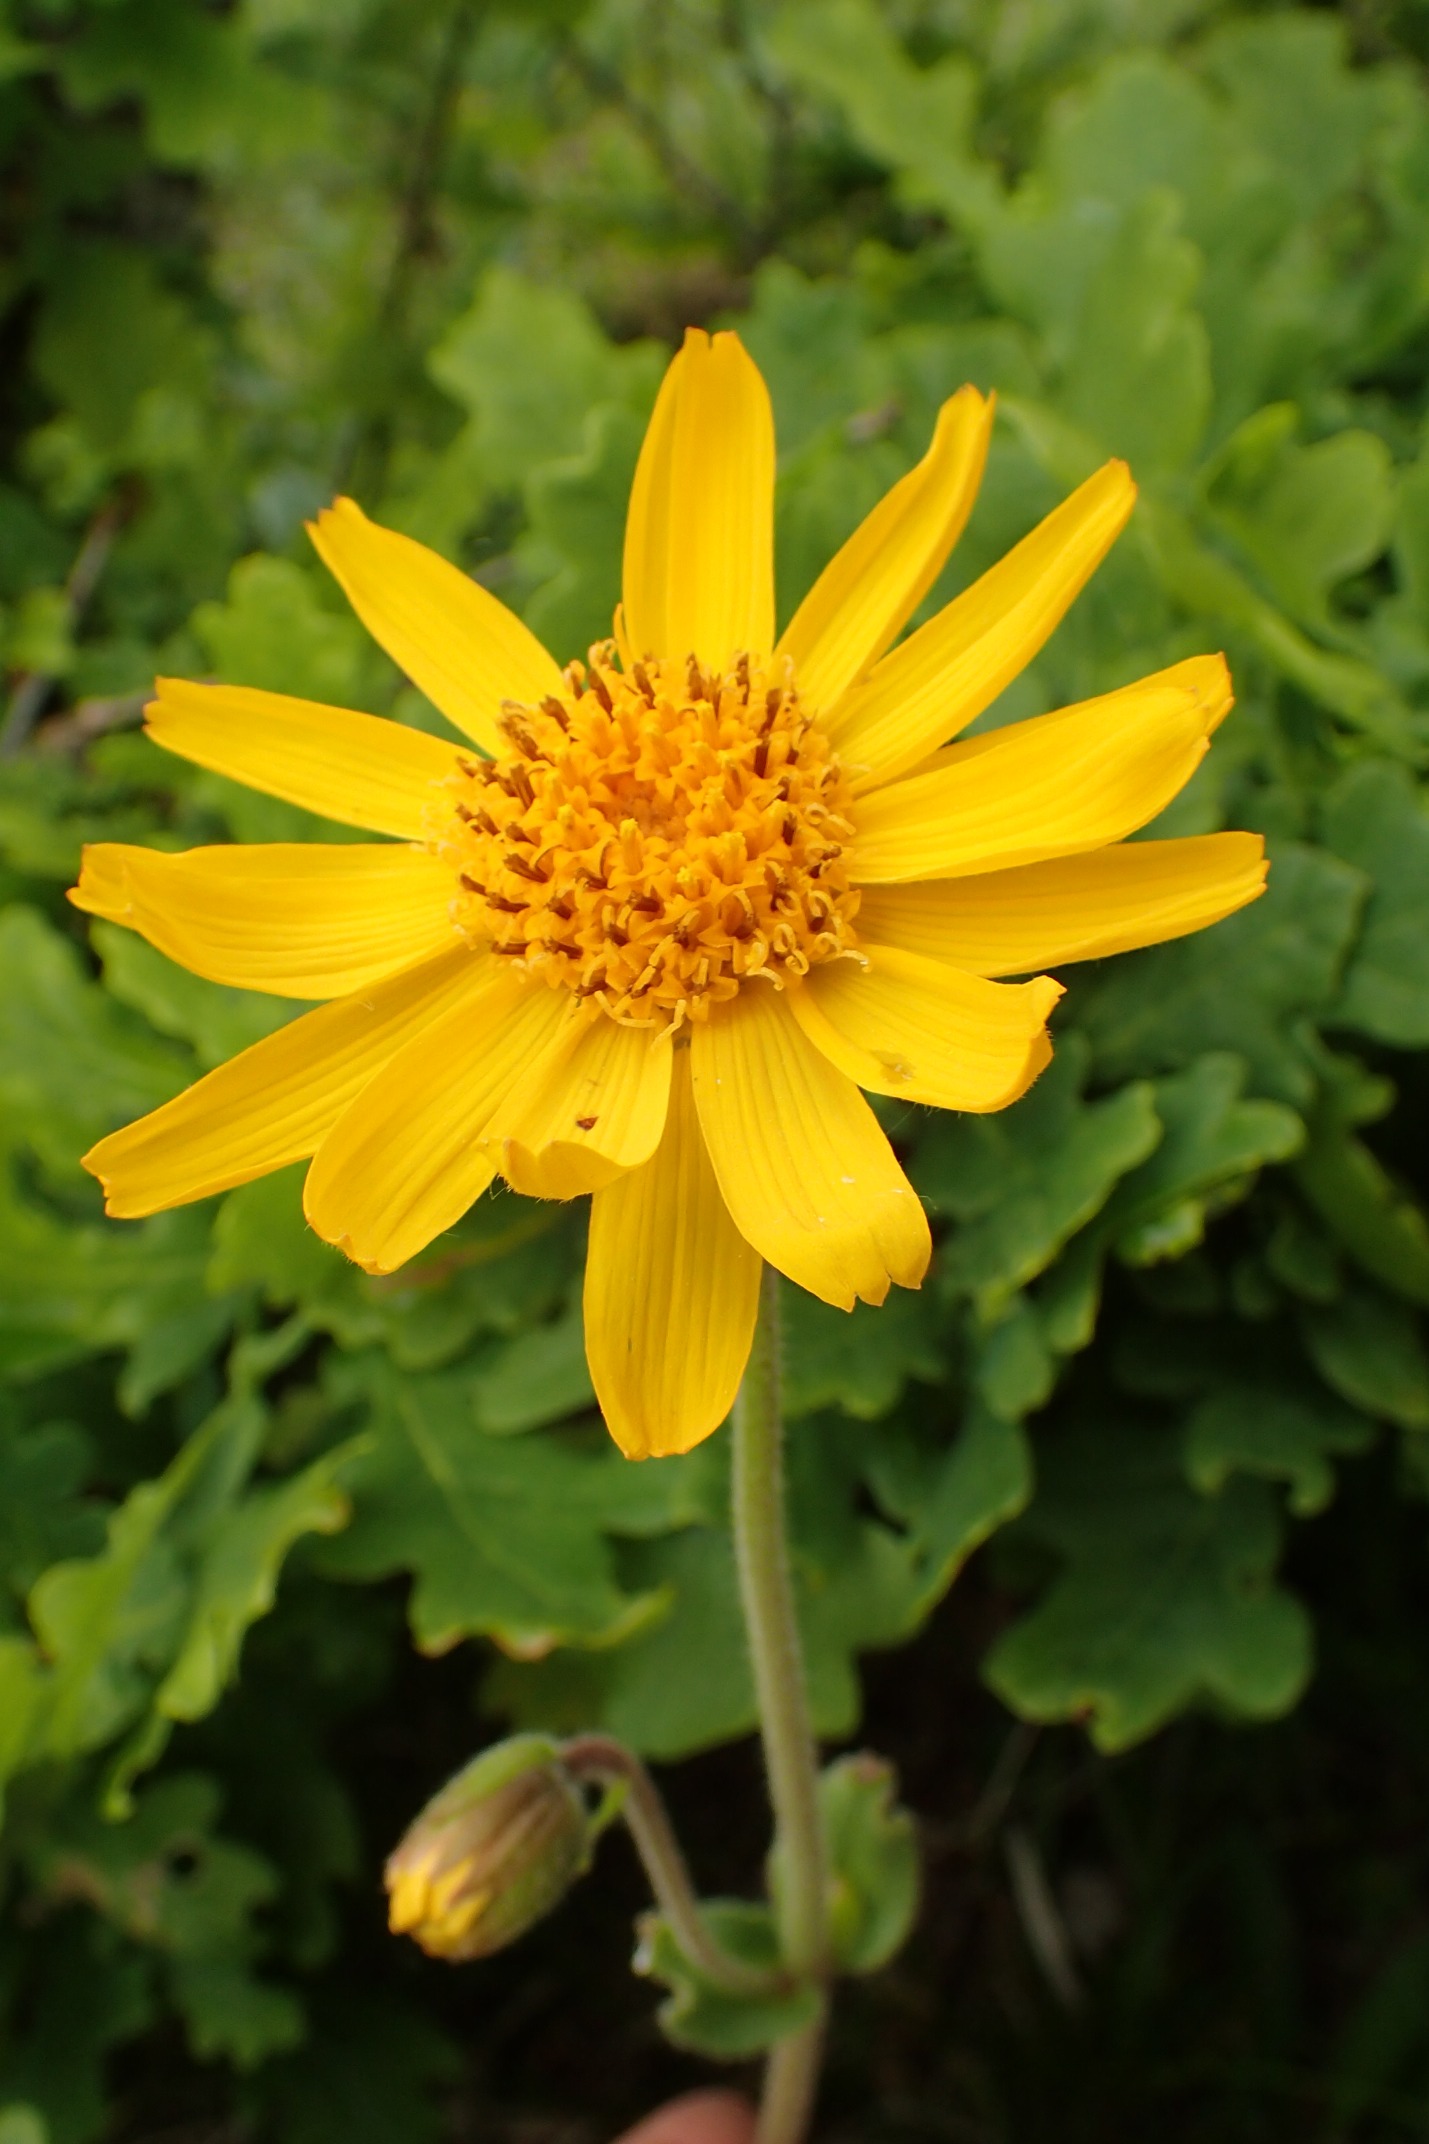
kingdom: Plantae
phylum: Tracheophyta
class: Magnoliopsida
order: Asterales
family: Asteraceae
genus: Arnica
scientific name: Arnica montana
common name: Guldblomme
